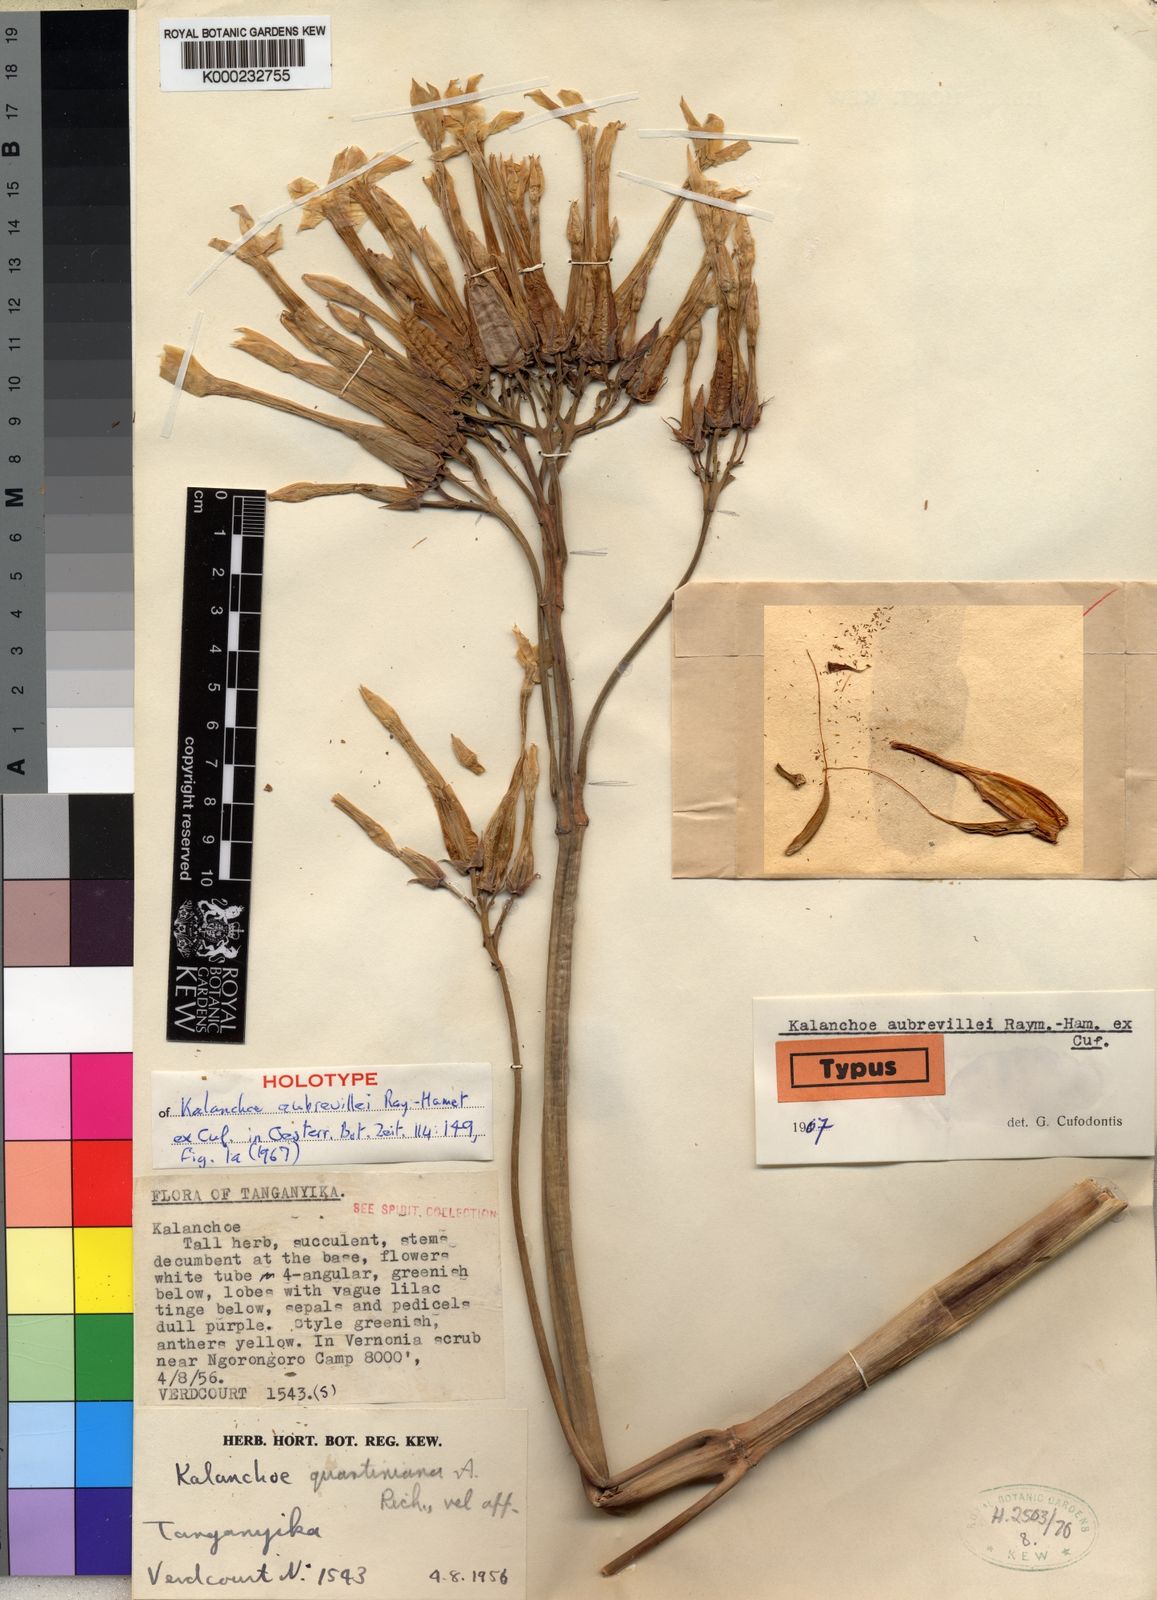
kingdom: Plantae
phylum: Tracheophyta
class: Magnoliopsida
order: Saxifragales
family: Crassulaceae
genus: Kalanchoe
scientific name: Kalanchoe aubrevillei
